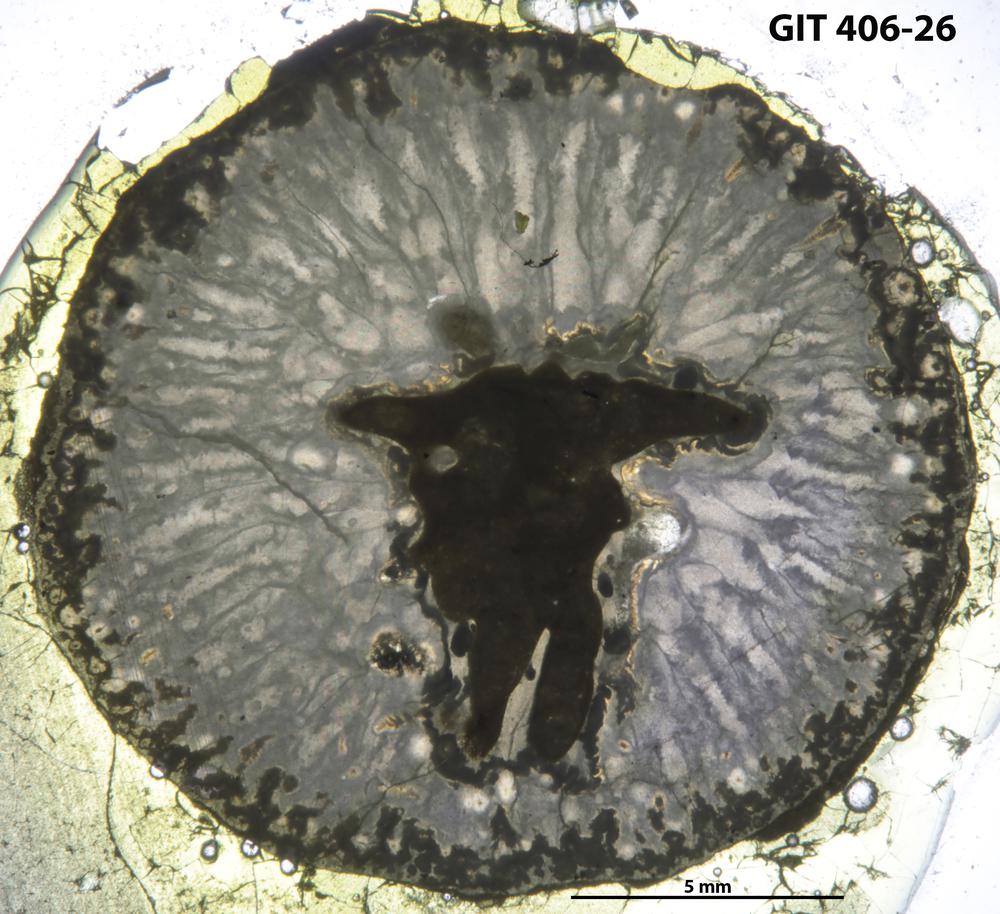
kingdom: Animalia
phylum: Cnidaria
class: Anthozoa
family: Streptelasmatidae
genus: Kenophyllum
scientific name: Kenophyllum
